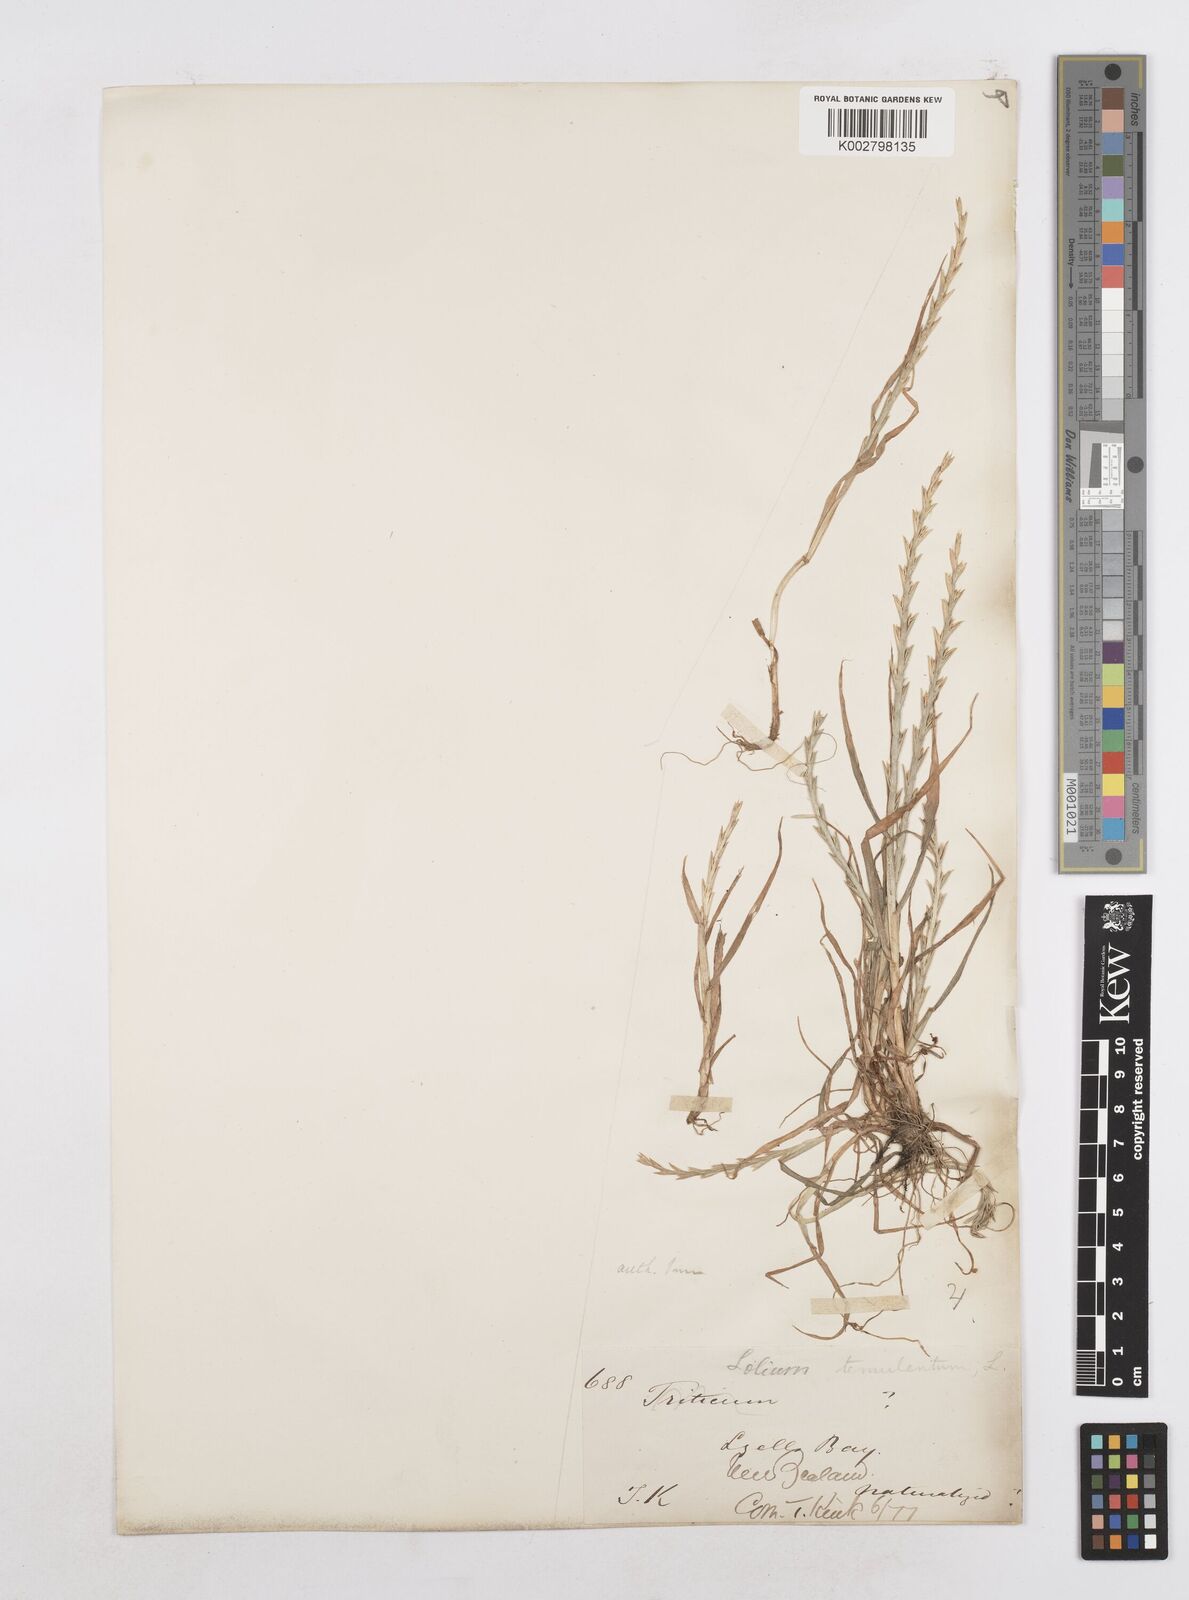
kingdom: Plantae
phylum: Tracheophyta
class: Liliopsida
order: Poales
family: Poaceae
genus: Lolium
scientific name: Lolium rigidum
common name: Wimmera ryegrass
